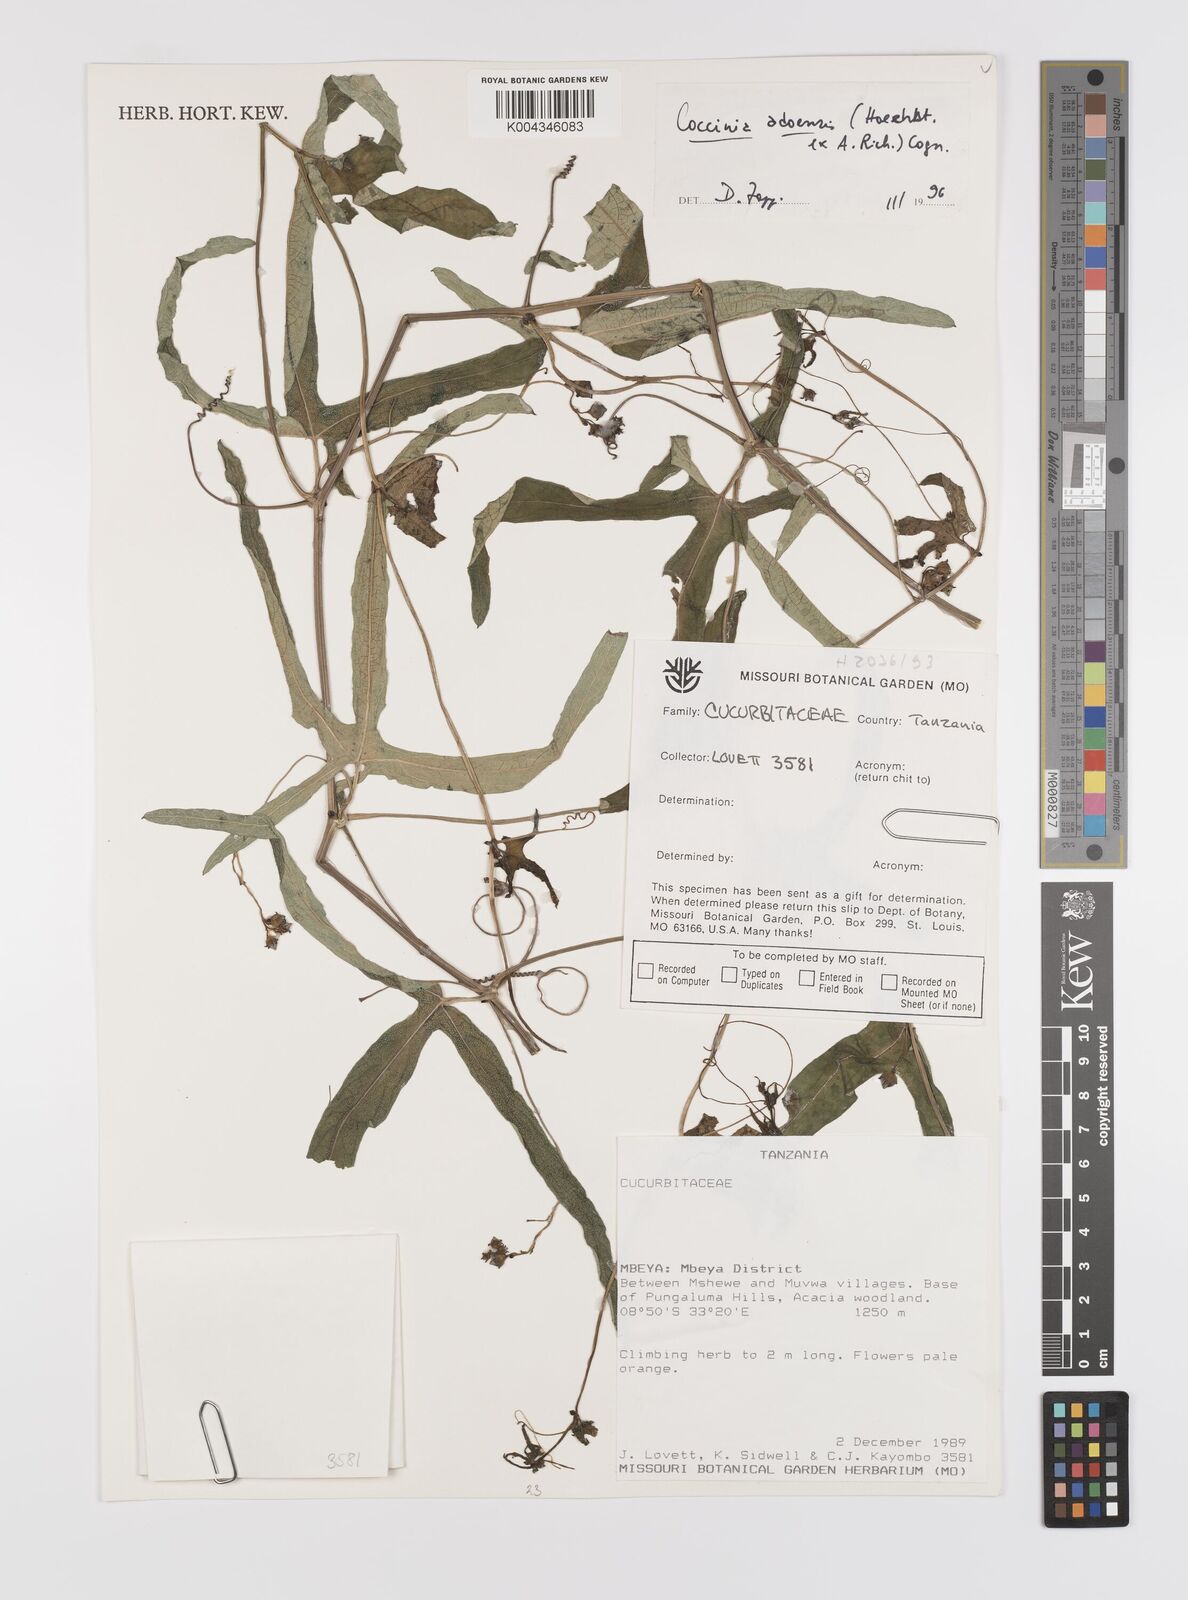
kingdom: Plantae
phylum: Tracheophyta
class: Magnoliopsida
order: Cucurbitales
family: Cucurbitaceae
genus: Coccinia
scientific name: Coccinia adoensis
